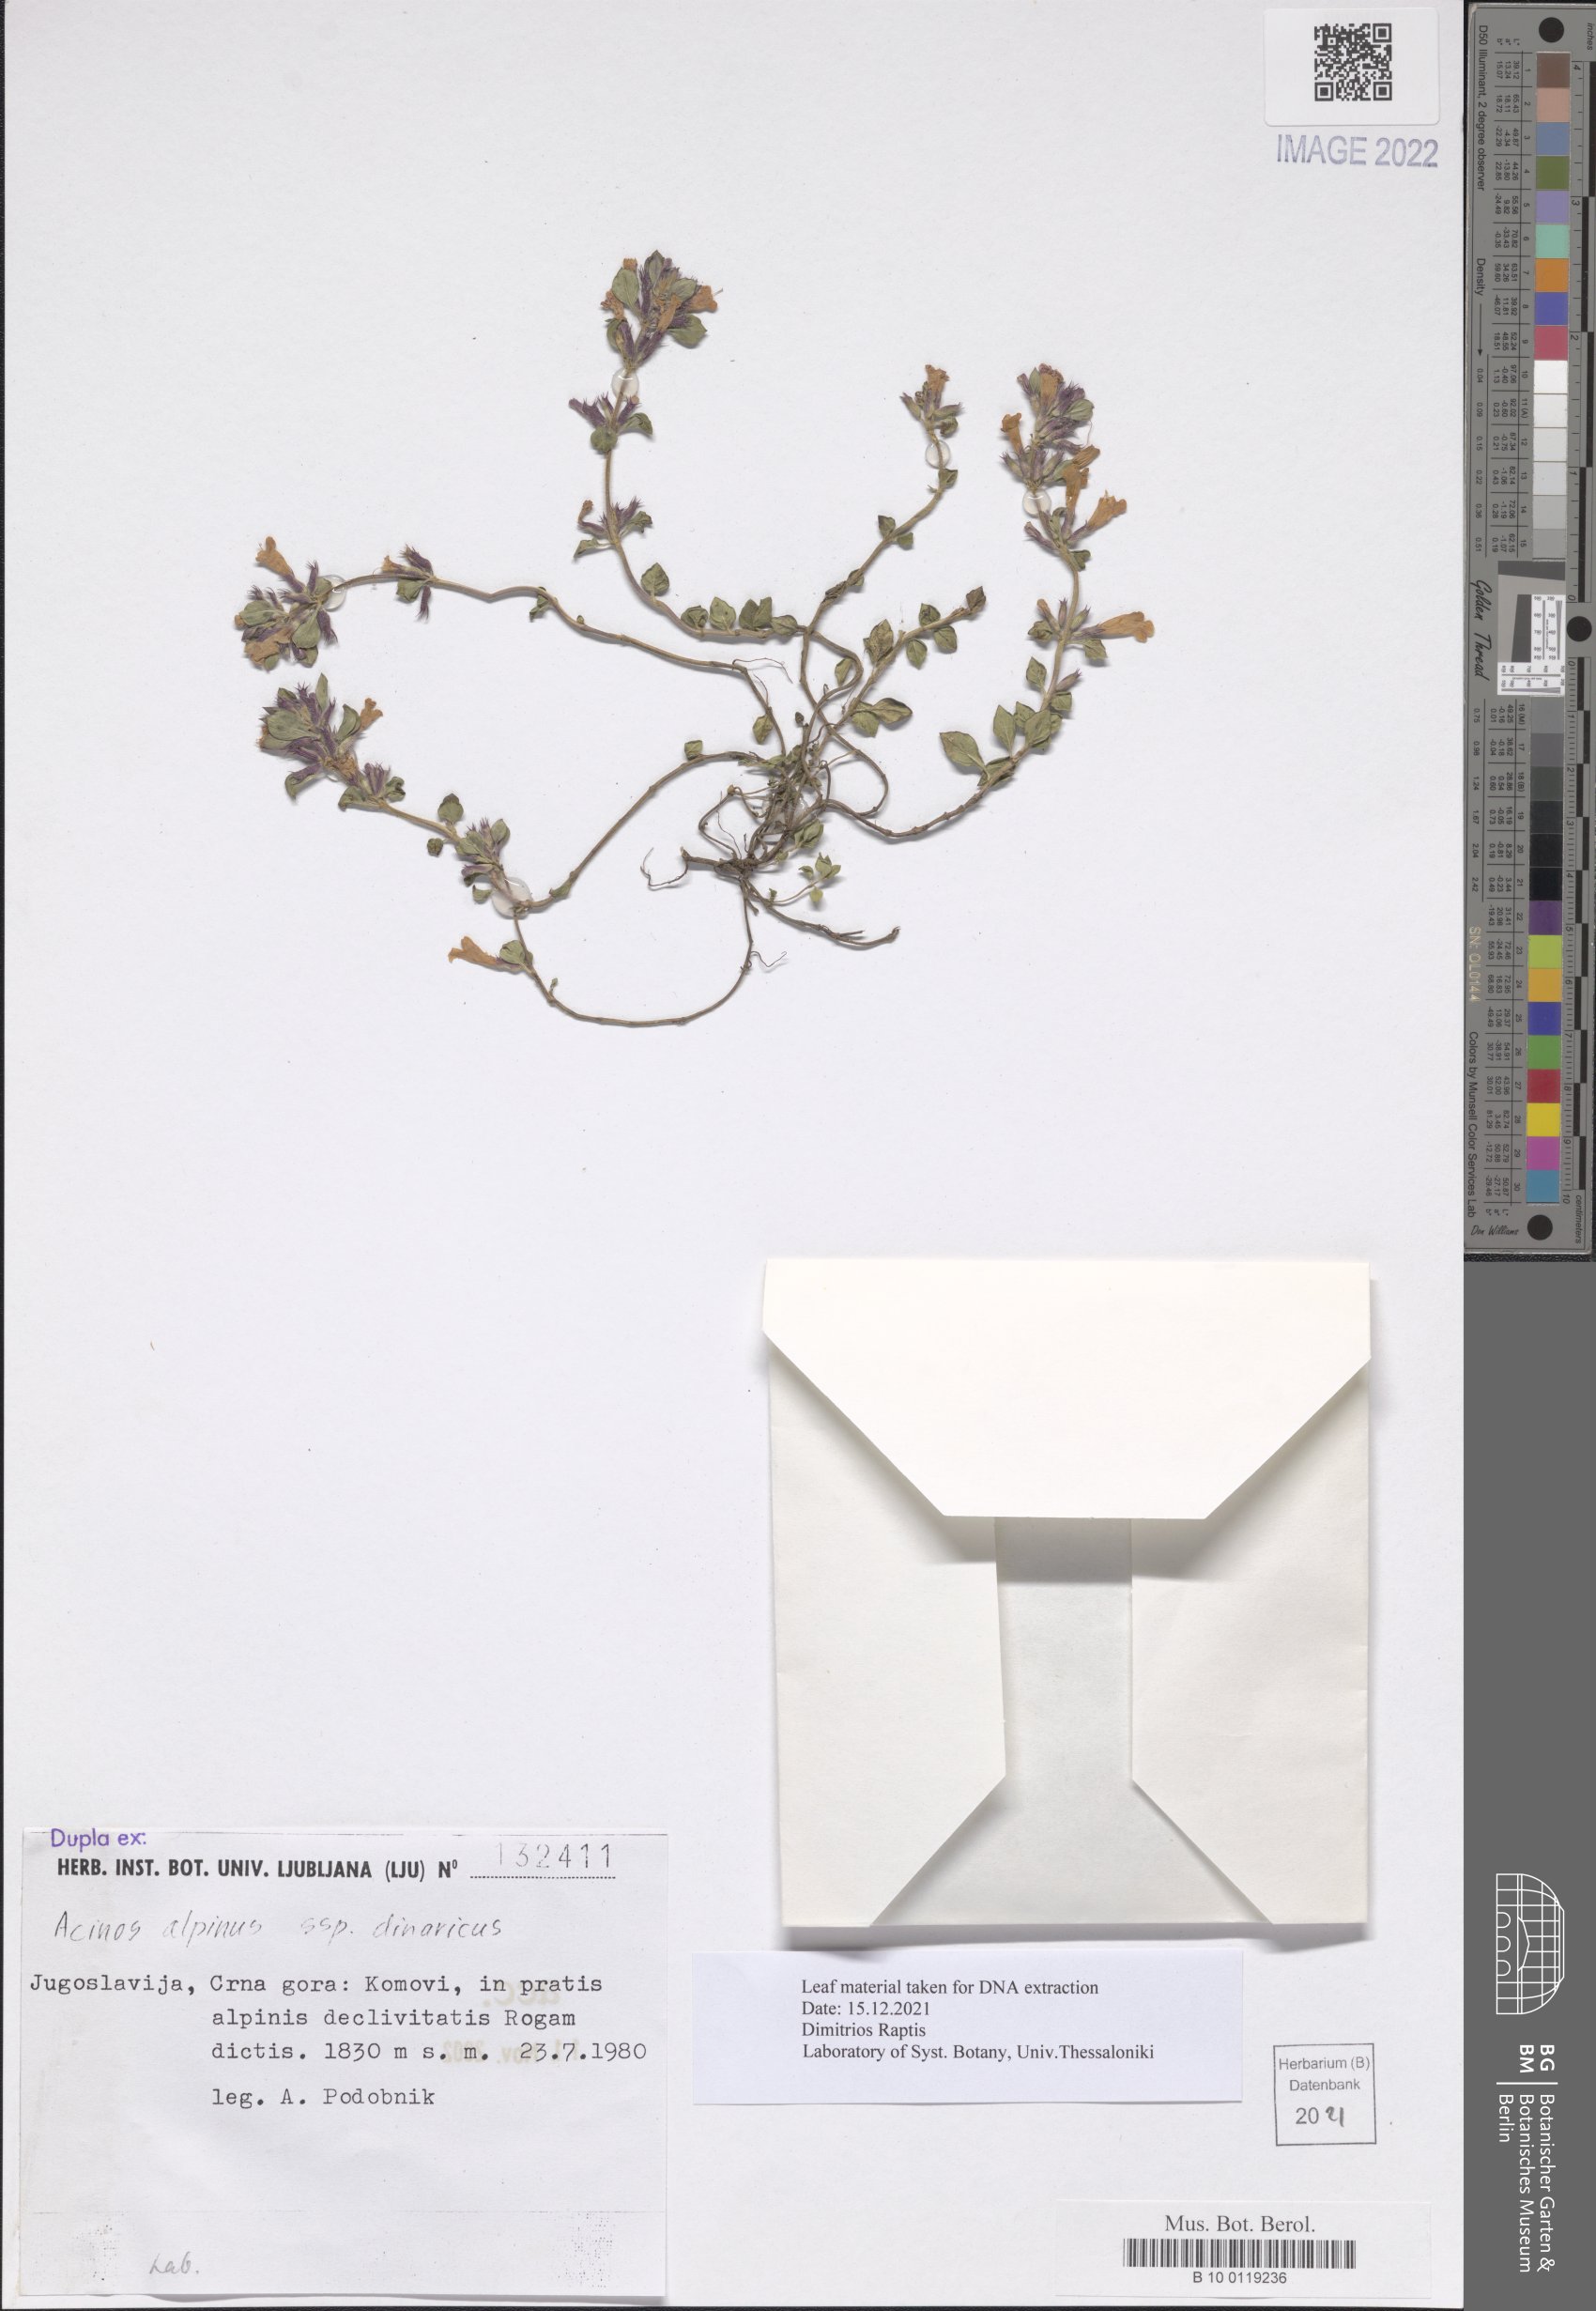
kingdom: Plantae
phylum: Tracheophyta
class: Magnoliopsida
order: Lamiales
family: Lamiaceae
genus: Clinopodium
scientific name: Clinopodium alpinum
